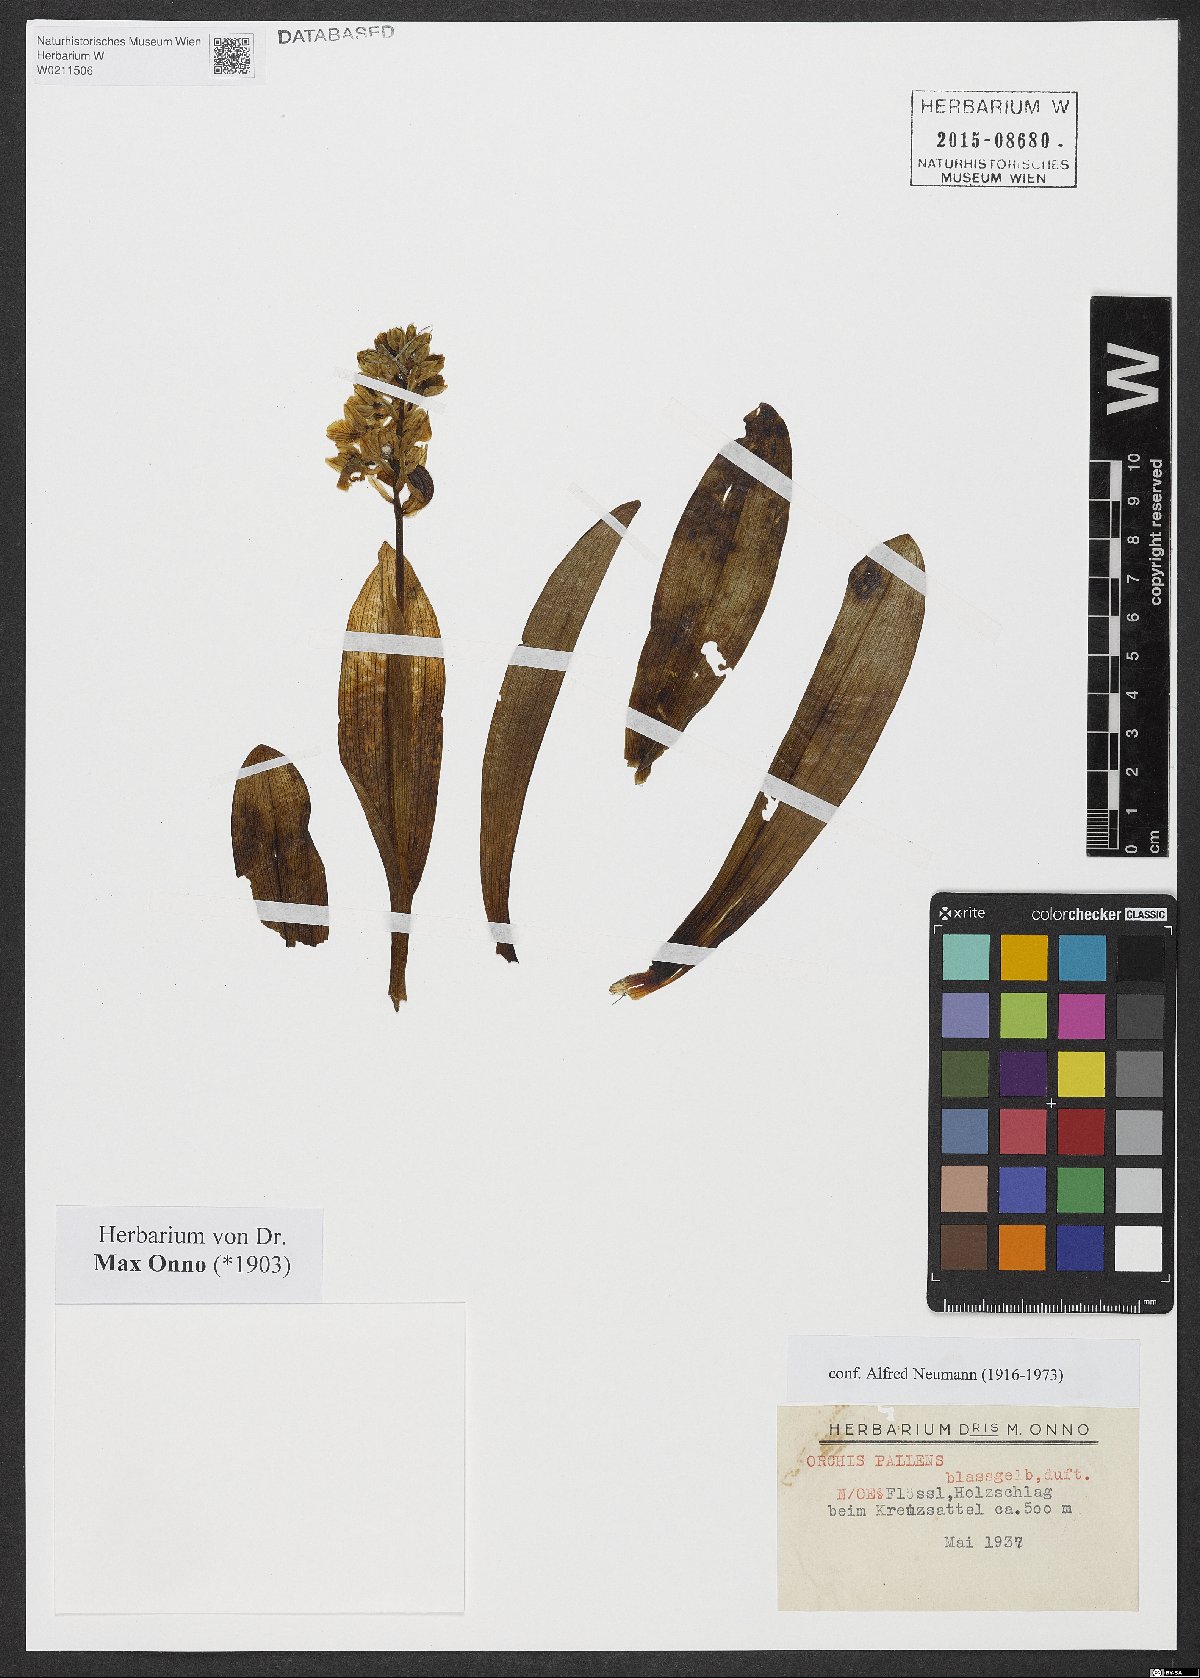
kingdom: Plantae
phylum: Tracheophyta
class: Liliopsida
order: Asparagales
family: Orchidaceae
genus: Orchis
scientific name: Orchis pallens
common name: Pale-flowered orchid
